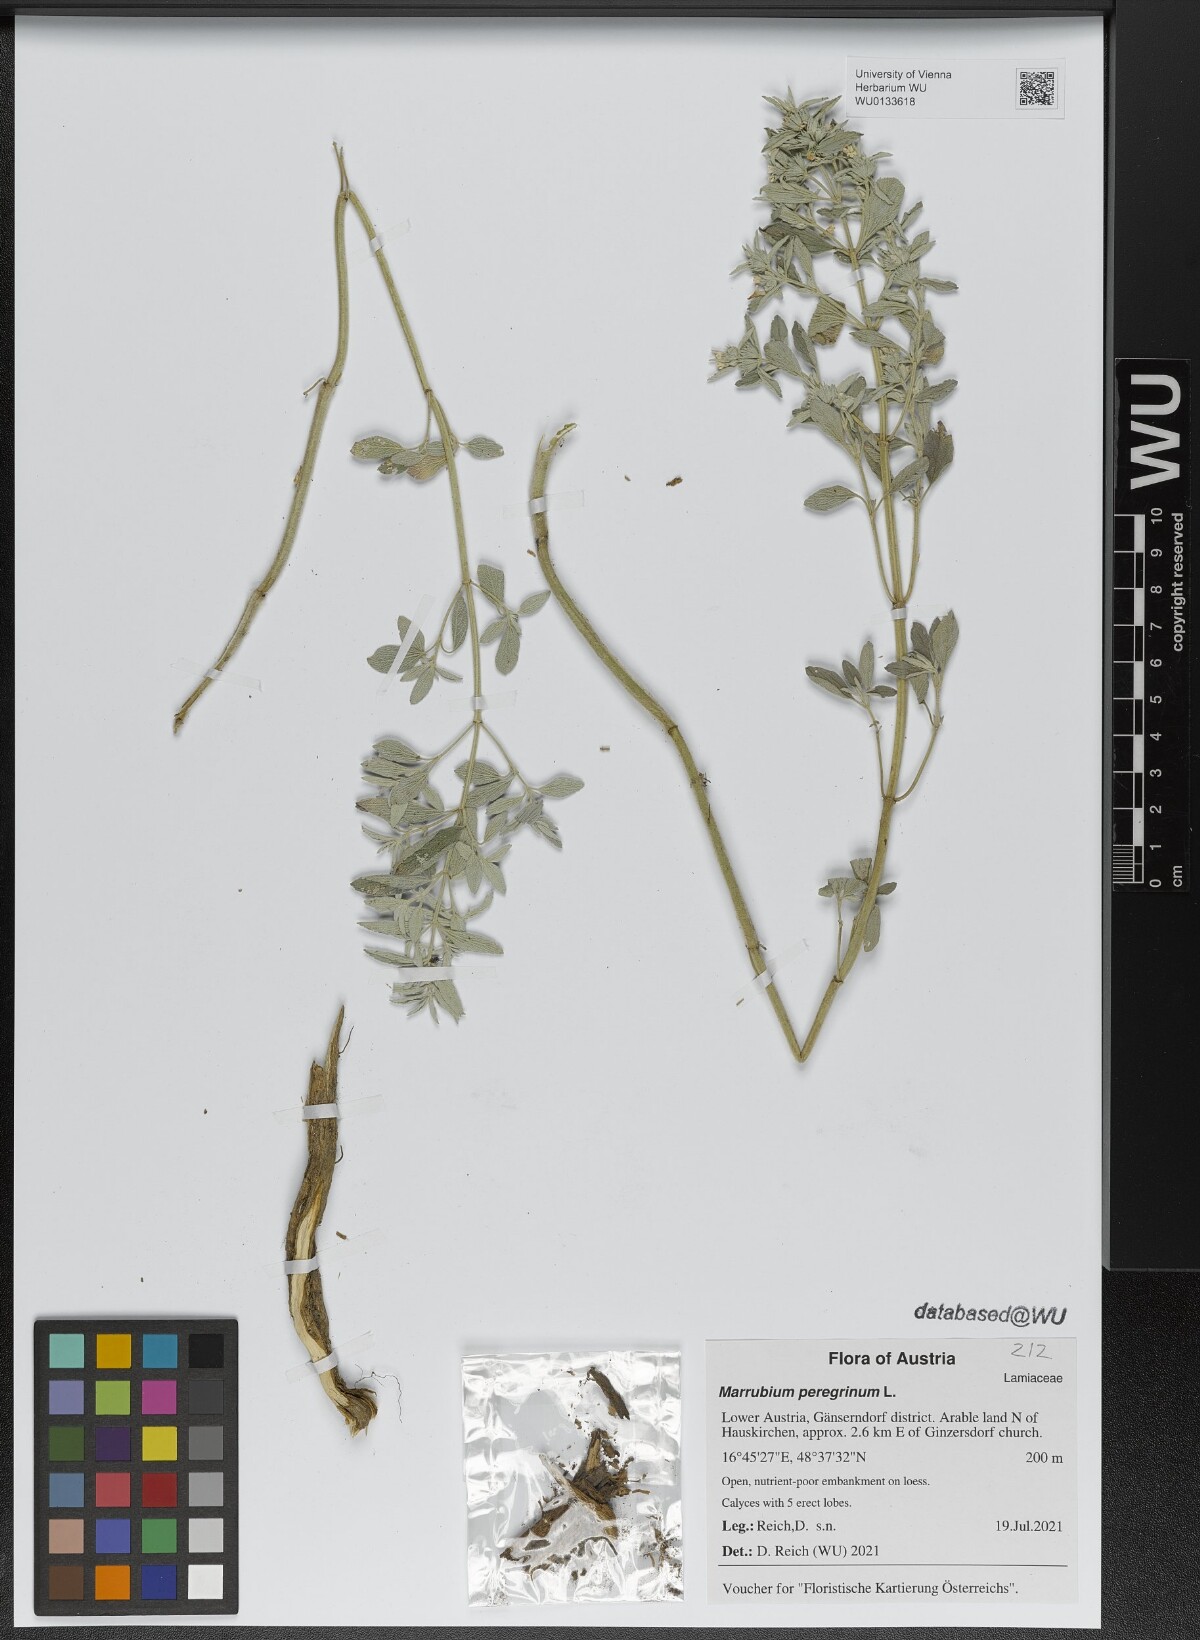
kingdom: Plantae
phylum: Tracheophyta
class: Magnoliopsida
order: Lamiales
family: Lamiaceae
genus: Marrubium
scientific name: Marrubium peregrinum
